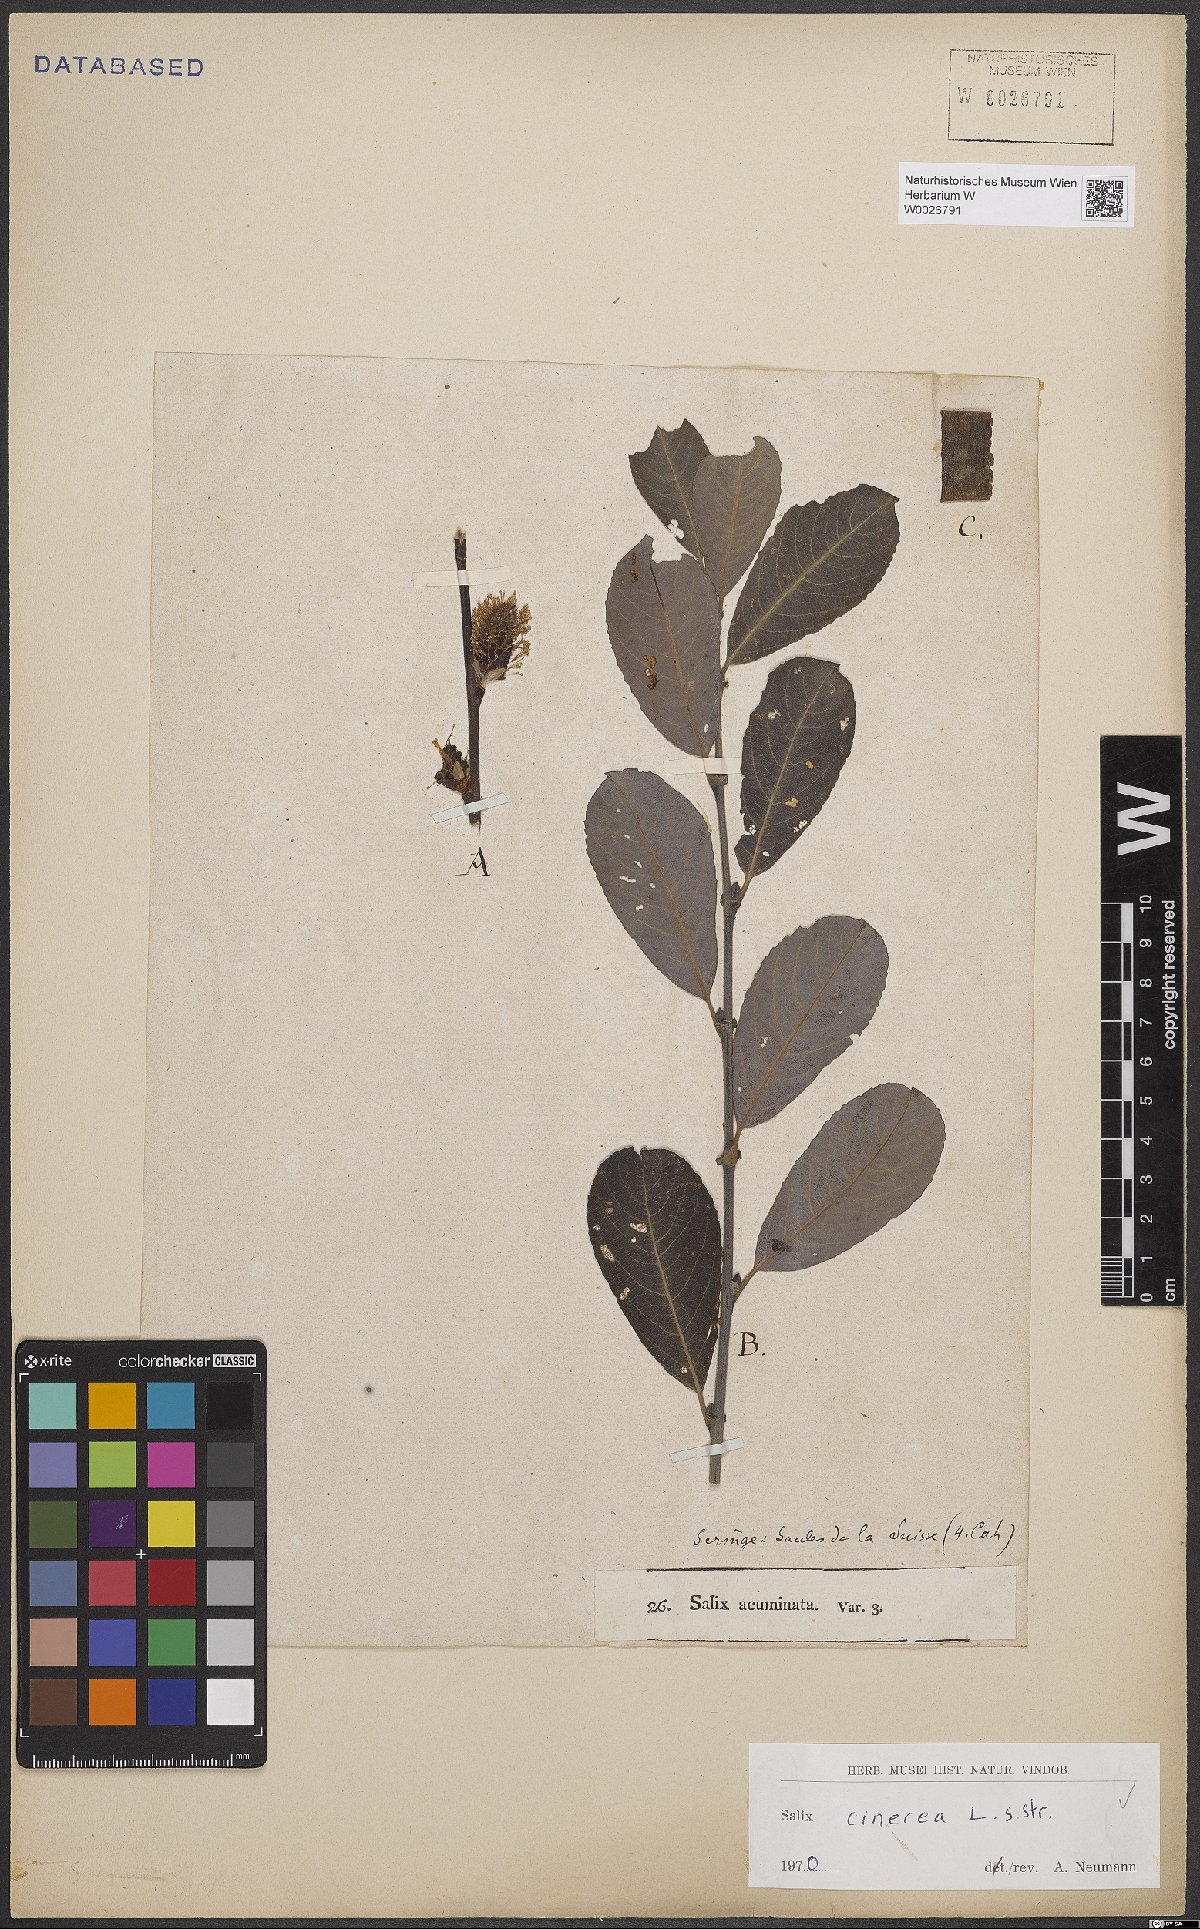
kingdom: Plantae
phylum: Tracheophyta
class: Magnoliopsida
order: Malpighiales
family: Salicaceae
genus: Salix
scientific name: Salix cinerea
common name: Common sallow
